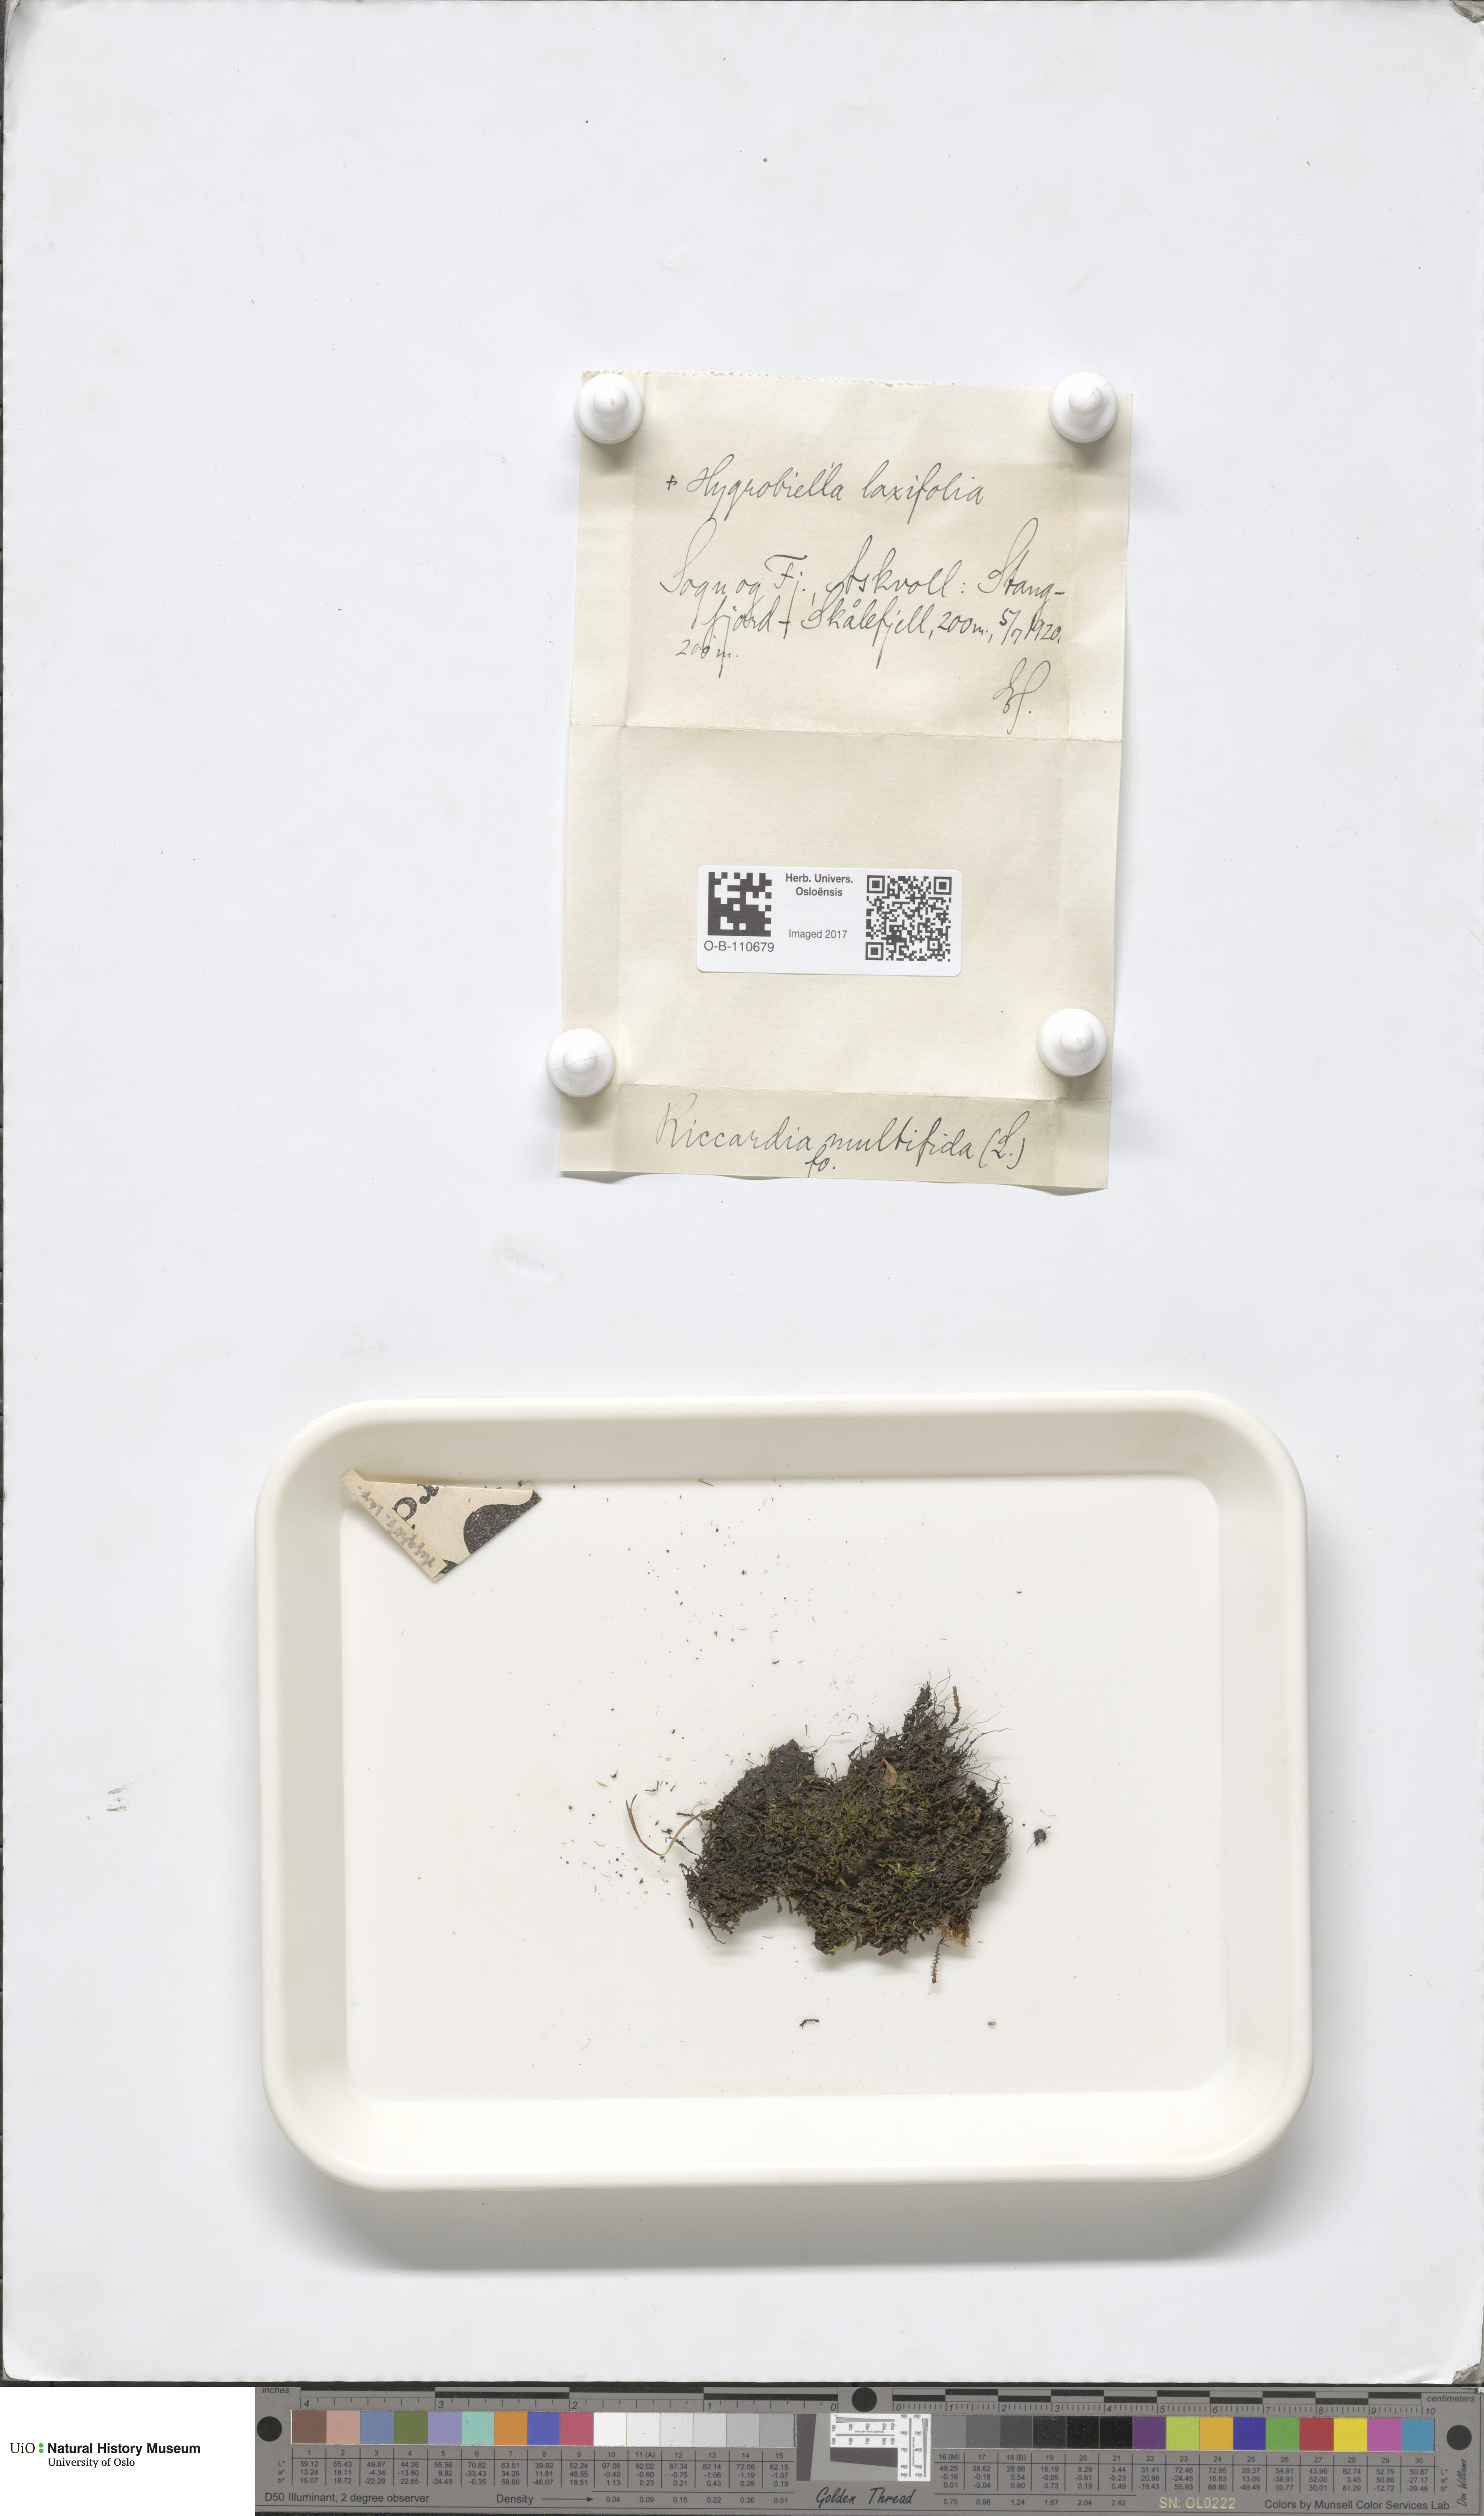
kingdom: Plantae
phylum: Marchantiophyta
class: Jungermanniopsida
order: Metzgeriales
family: Aneuraceae
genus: Riccardia
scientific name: Riccardia palmata
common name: Palmate germanderwort
